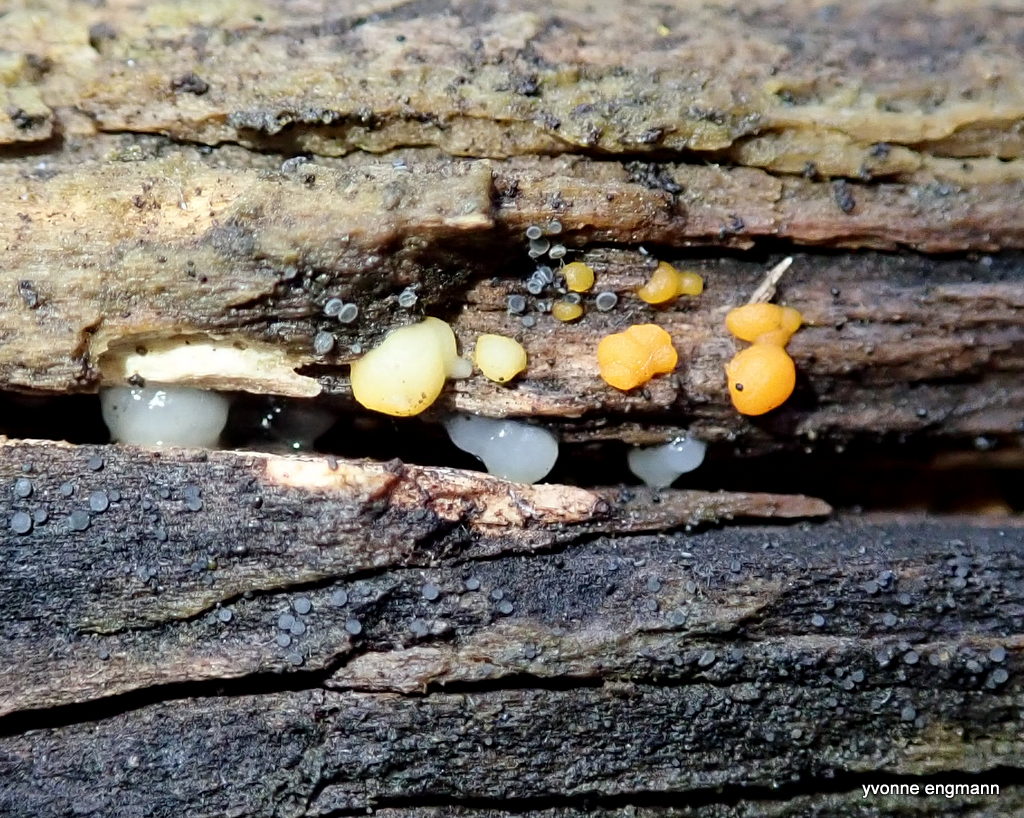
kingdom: Fungi
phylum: Basidiomycota
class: Agaricomycetes
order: Auriculariales
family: Hyaloriaceae
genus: Myxarium
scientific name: Myxarium nucleatum
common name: klar bævretop
